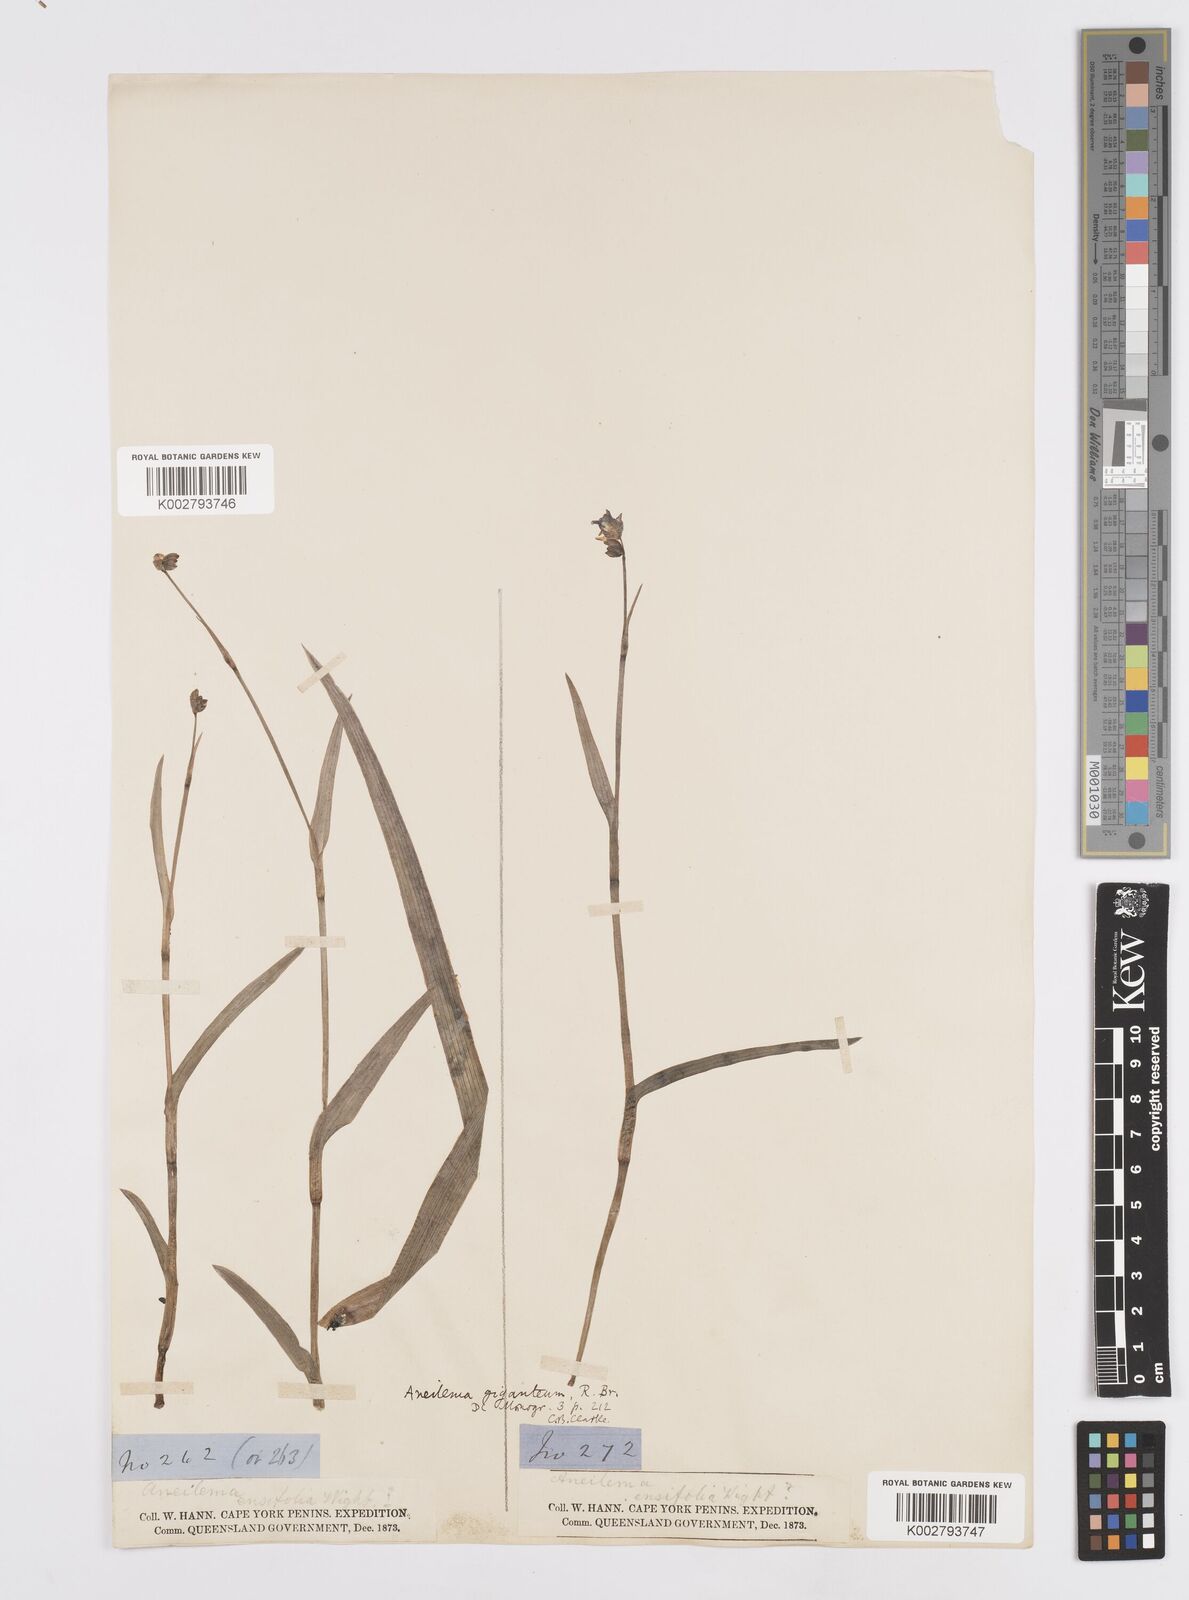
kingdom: Plantae
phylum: Tracheophyta
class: Liliopsida
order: Commelinales
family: Commelinaceae
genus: Murdannia
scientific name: Murdannia gigantea
